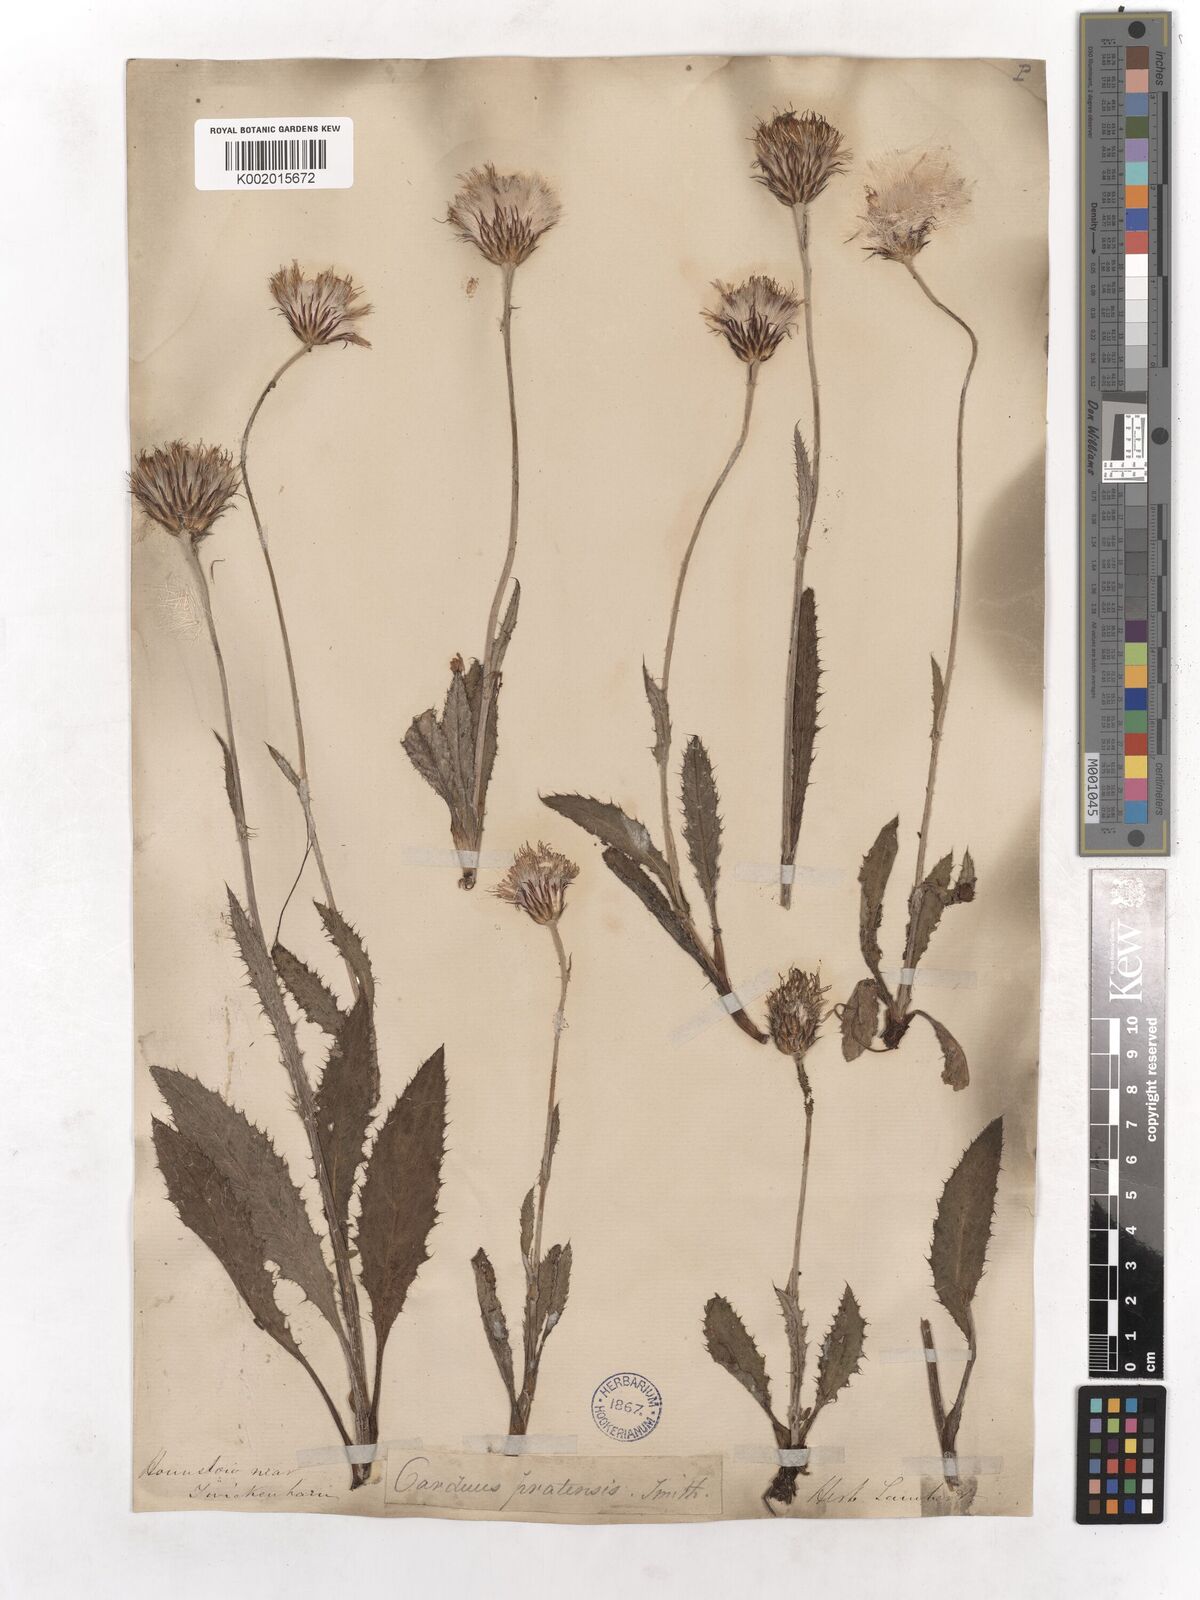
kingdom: Plantae
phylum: Tracheophyta
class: Magnoliopsida
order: Asterales
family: Asteraceae
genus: Cirsium
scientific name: Cirsium dissectum
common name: Meadow thistle
